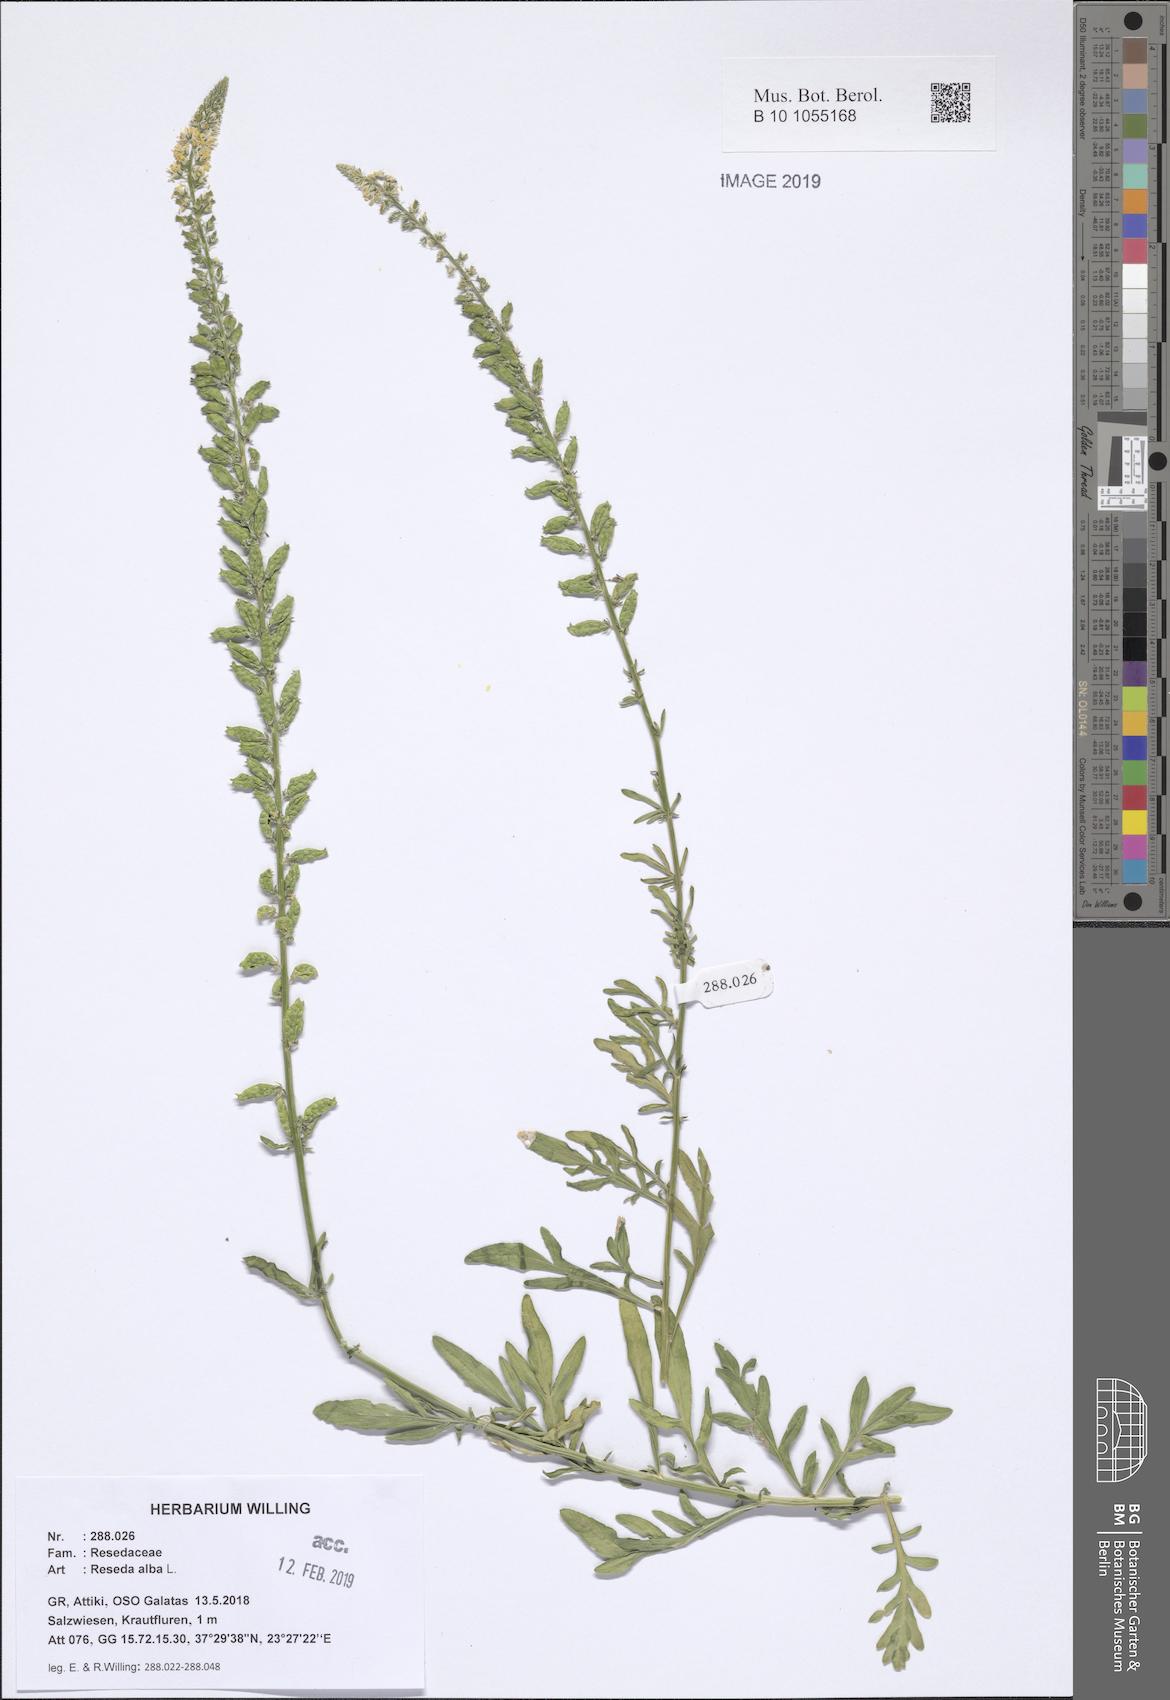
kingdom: Plantae
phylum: Tracheophyta
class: Magnoliopsida
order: Brassicales
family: Resedaceae
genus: Reseda
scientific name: Reseda alba
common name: White mignonette
